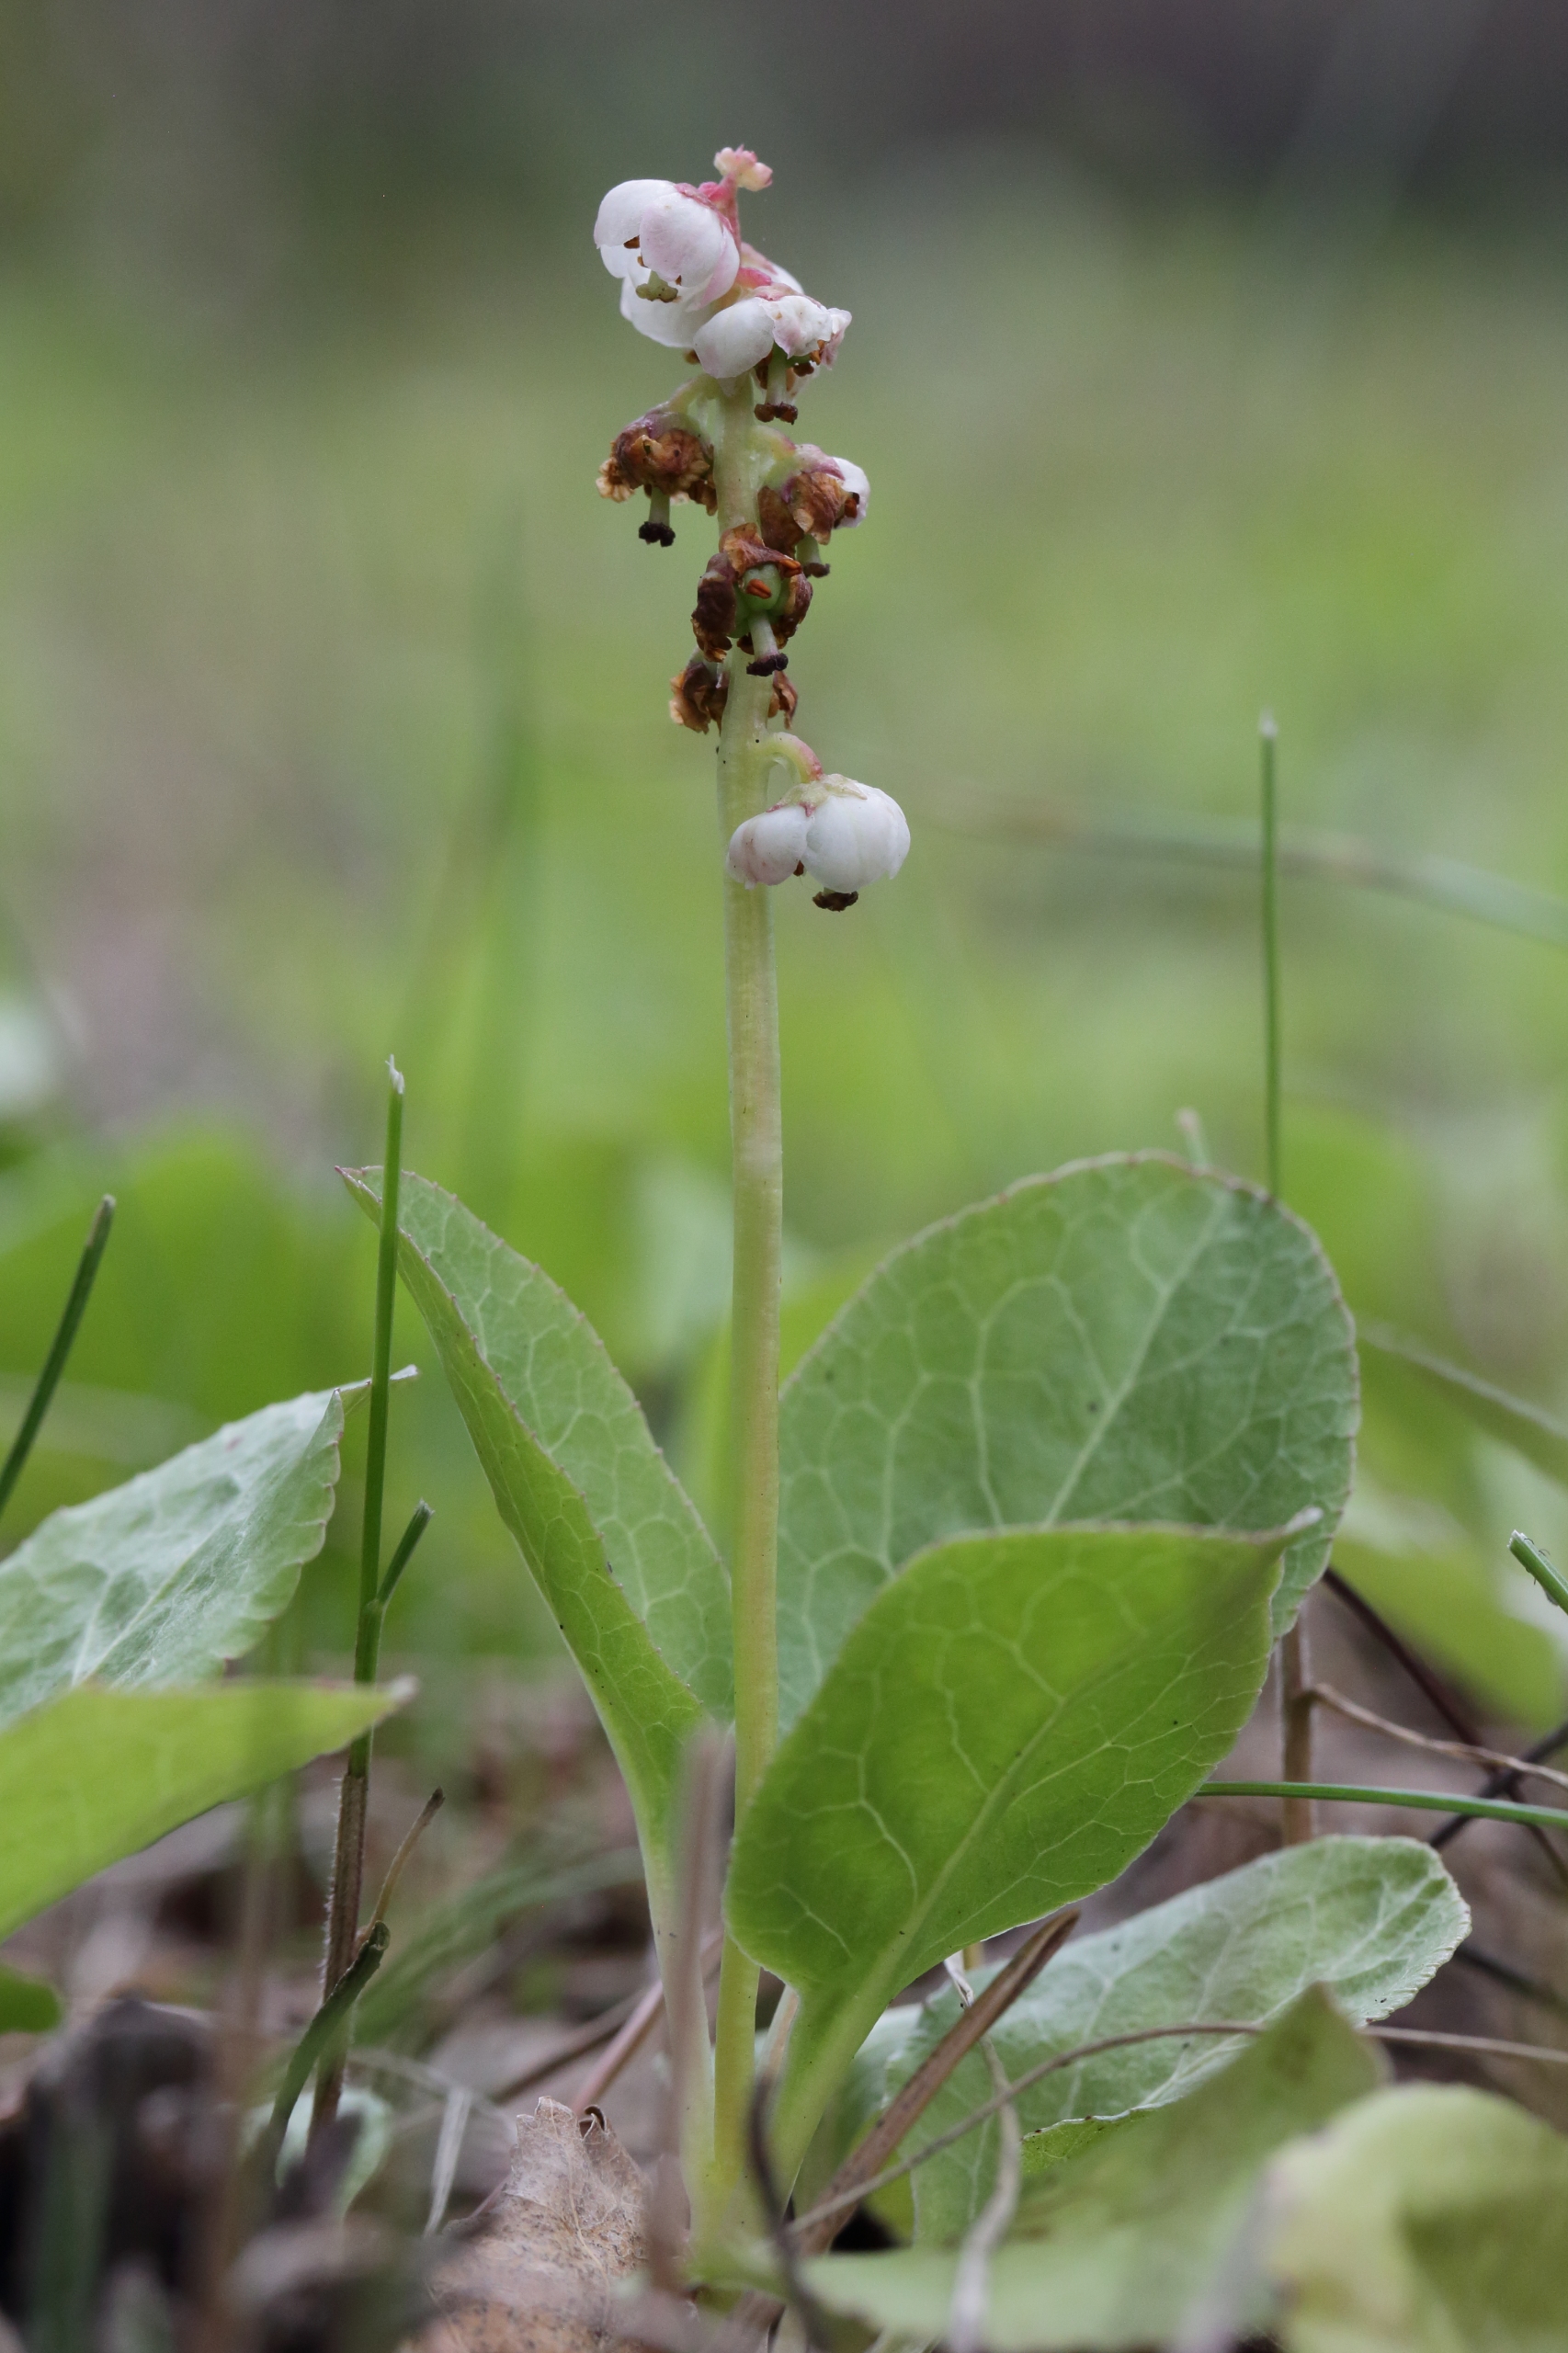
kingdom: Plantae
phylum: Tracheophyta
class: Magnoliopsida
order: Ericales
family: Ericaceae
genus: Pyrola
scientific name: Pyrola minor
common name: Liden vintergrøn
